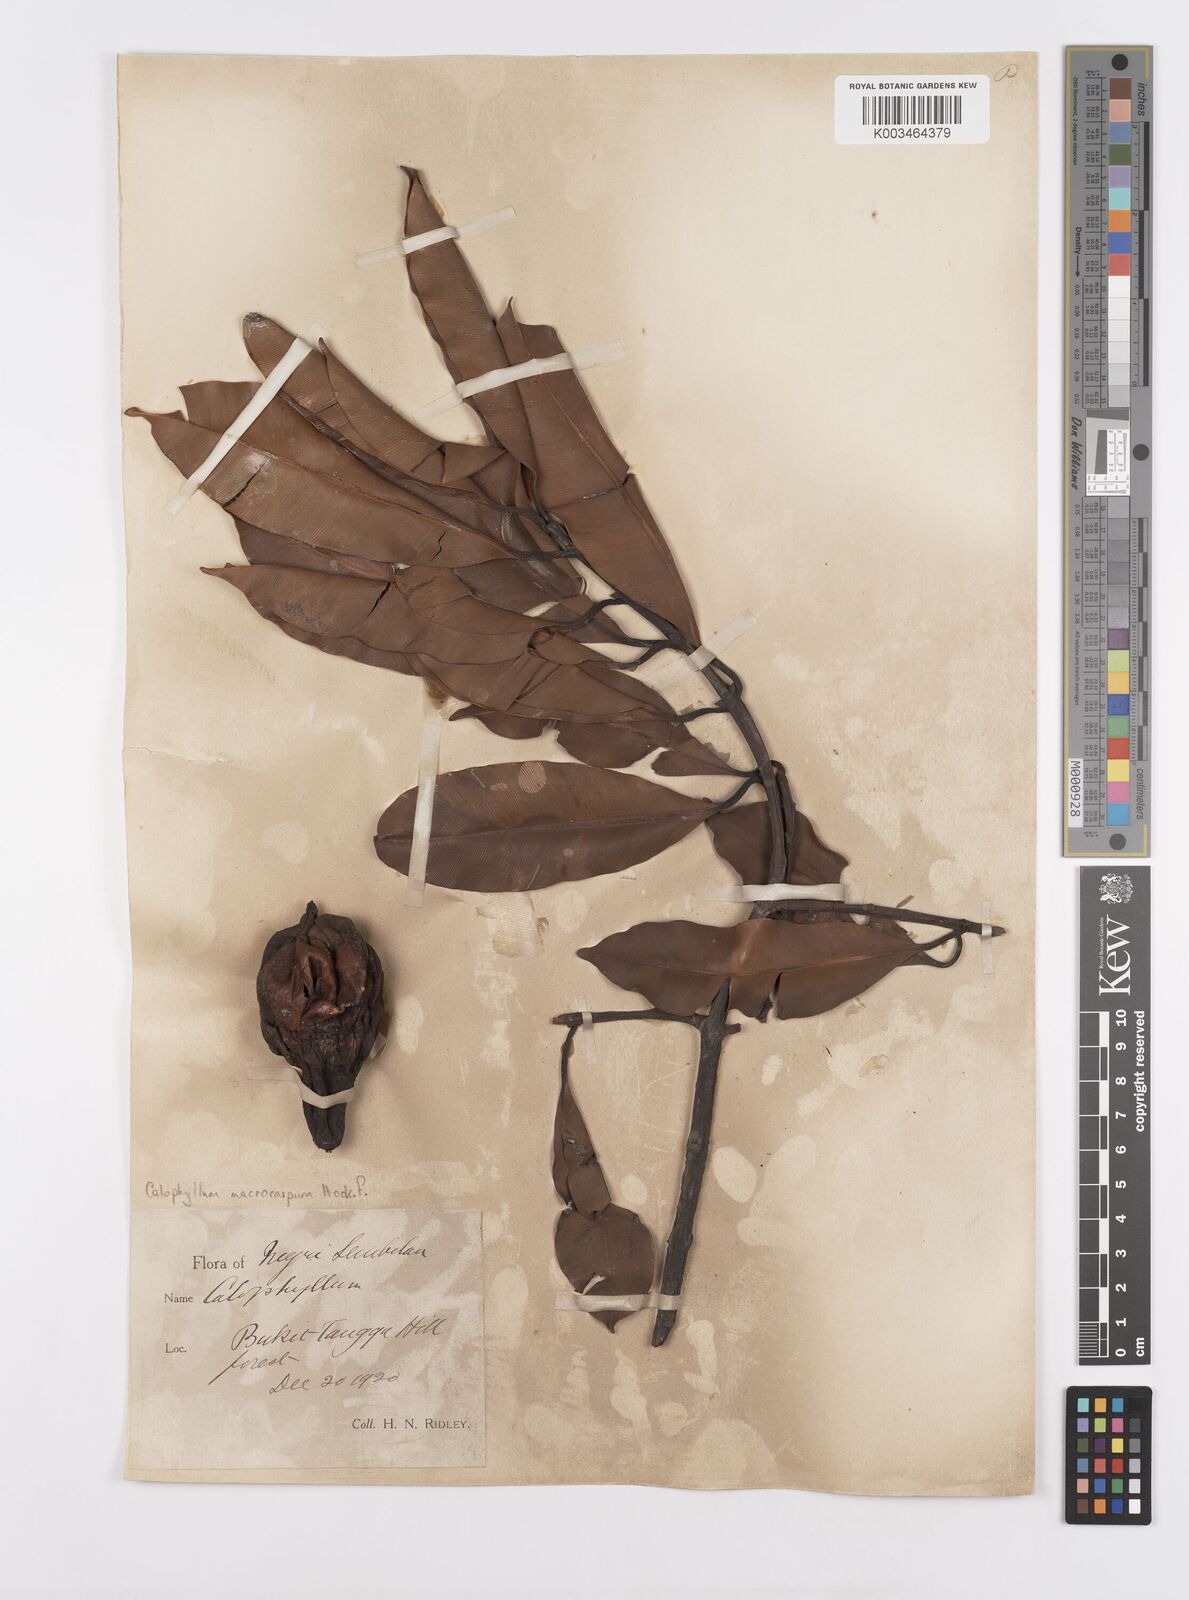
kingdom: Plantae
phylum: Tracheophyta
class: Magnoliopsida
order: Malpighiales
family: Calophyllaceae
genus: Calophyllum
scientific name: Calophyllum macrocarpum
